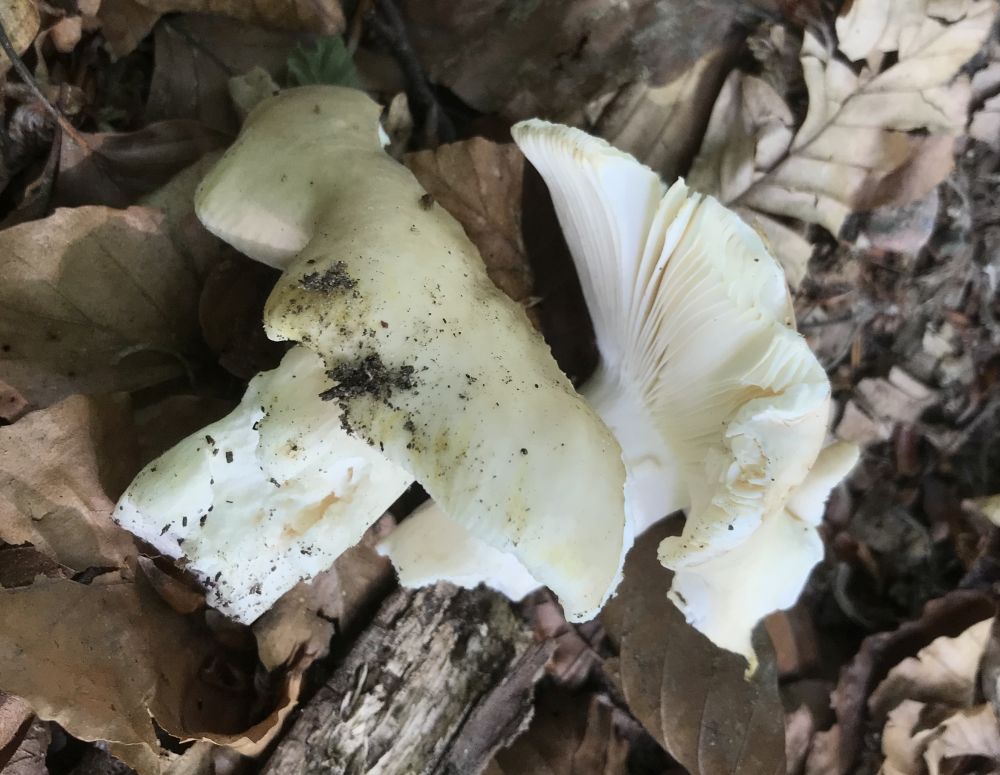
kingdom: Fungi
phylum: Basidiomycota
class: Agaricomycetes
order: Russulales
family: Russulaceae
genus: Russula
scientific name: Russula
